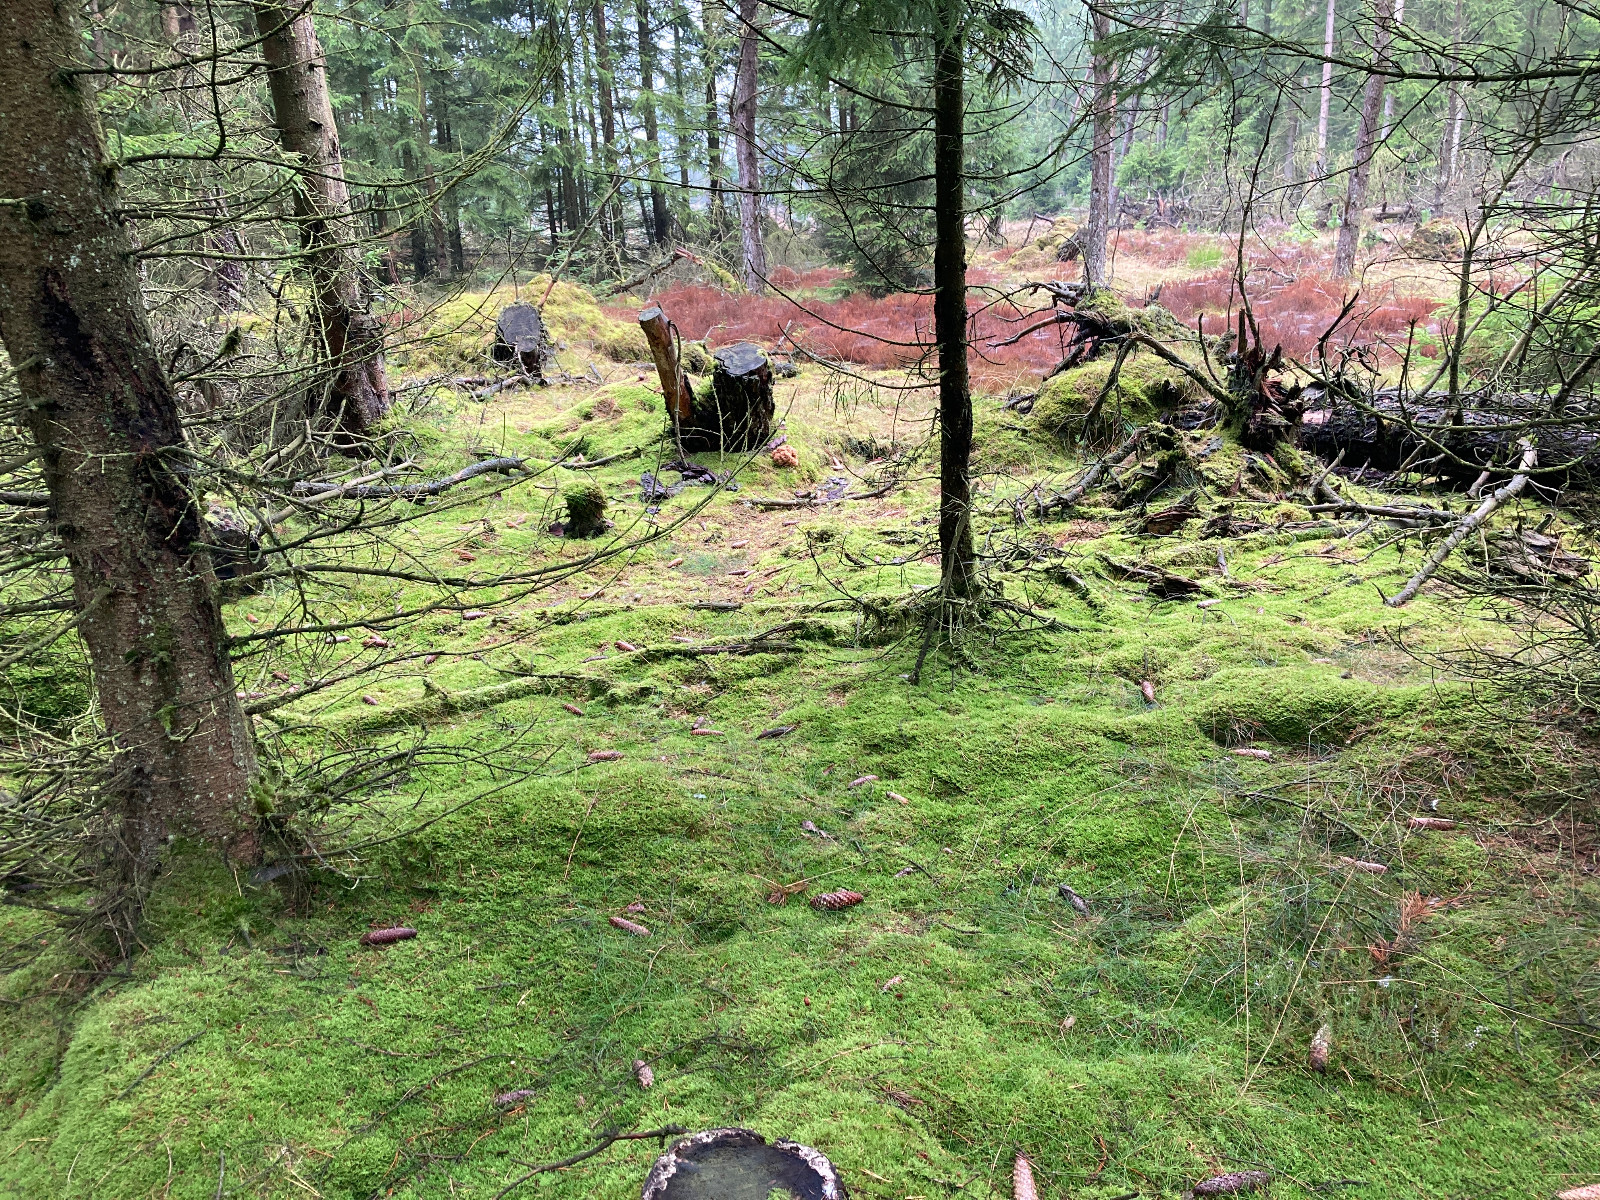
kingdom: Fungi
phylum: Basidiomycota
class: Agaricomycetes
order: Polyporales
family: Sparassidaceae
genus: Sparassis
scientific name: Sparassis crispa
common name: kruset blomkålssvamp
